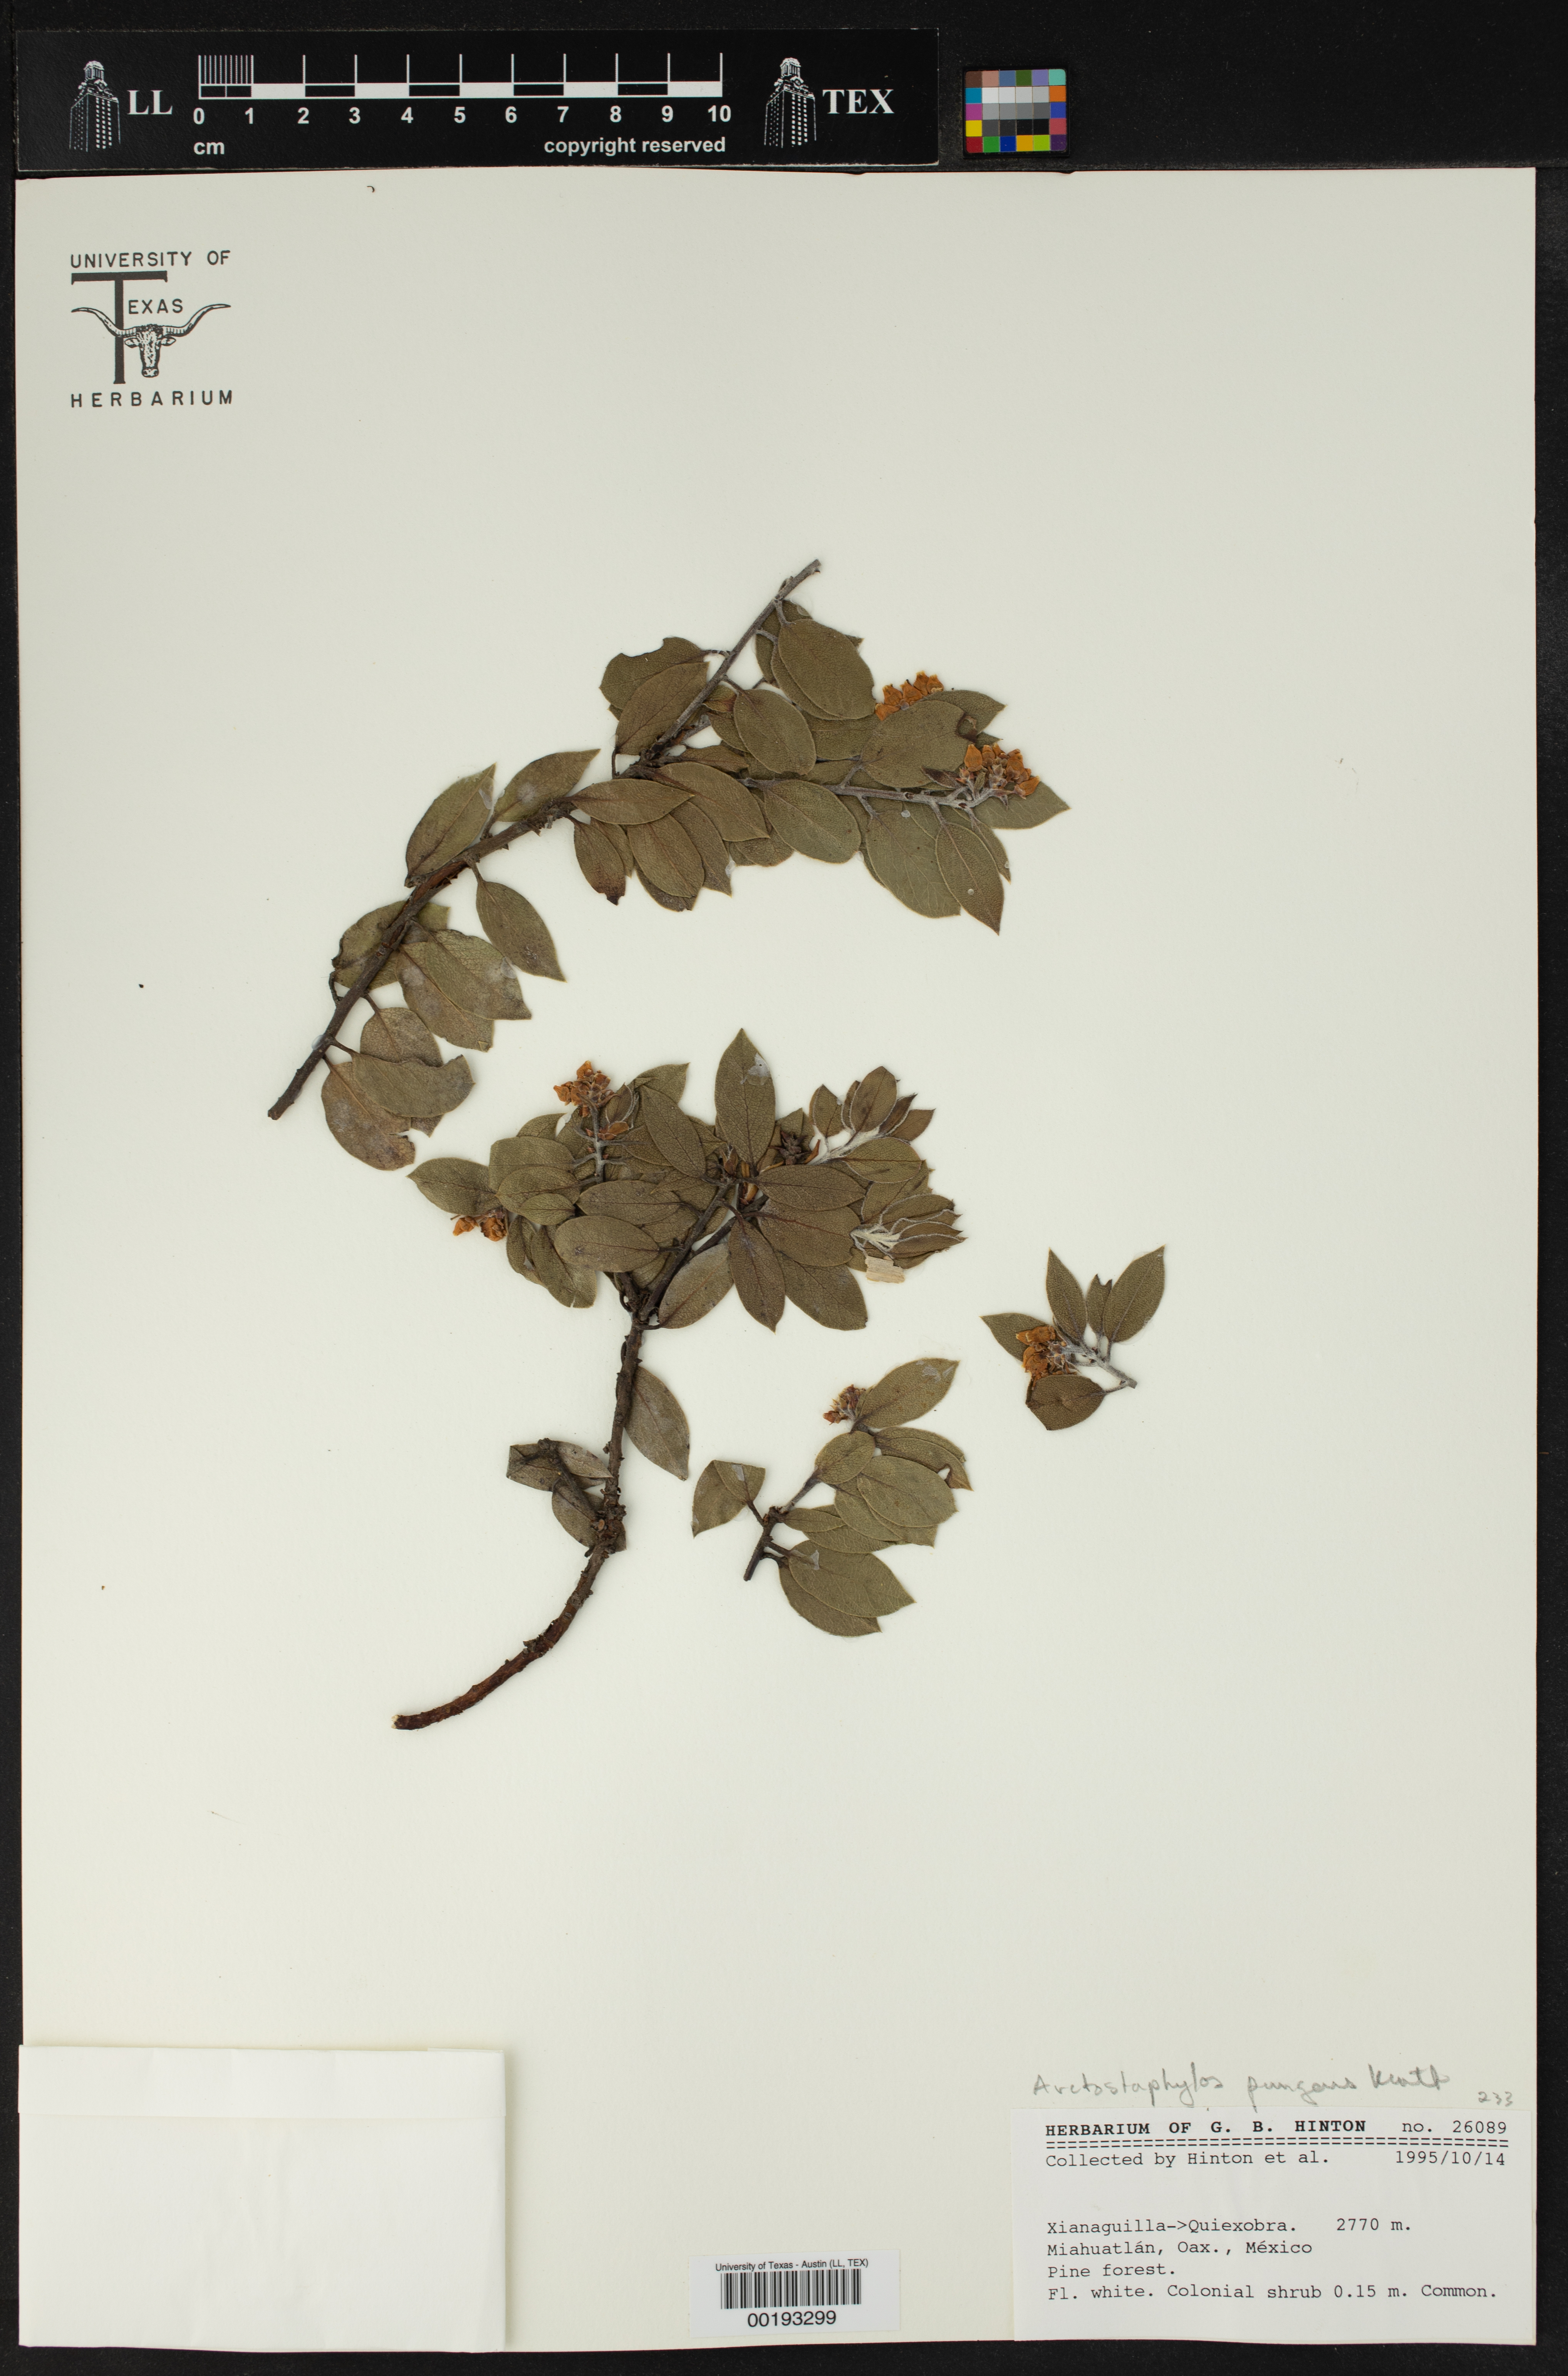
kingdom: Plantae
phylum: Tracheophyta
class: Magnoliopsida
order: Ericales
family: Ericaceae
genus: Arctostaphylos
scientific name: Arctostaphylos pungens
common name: Mexican manzanita
